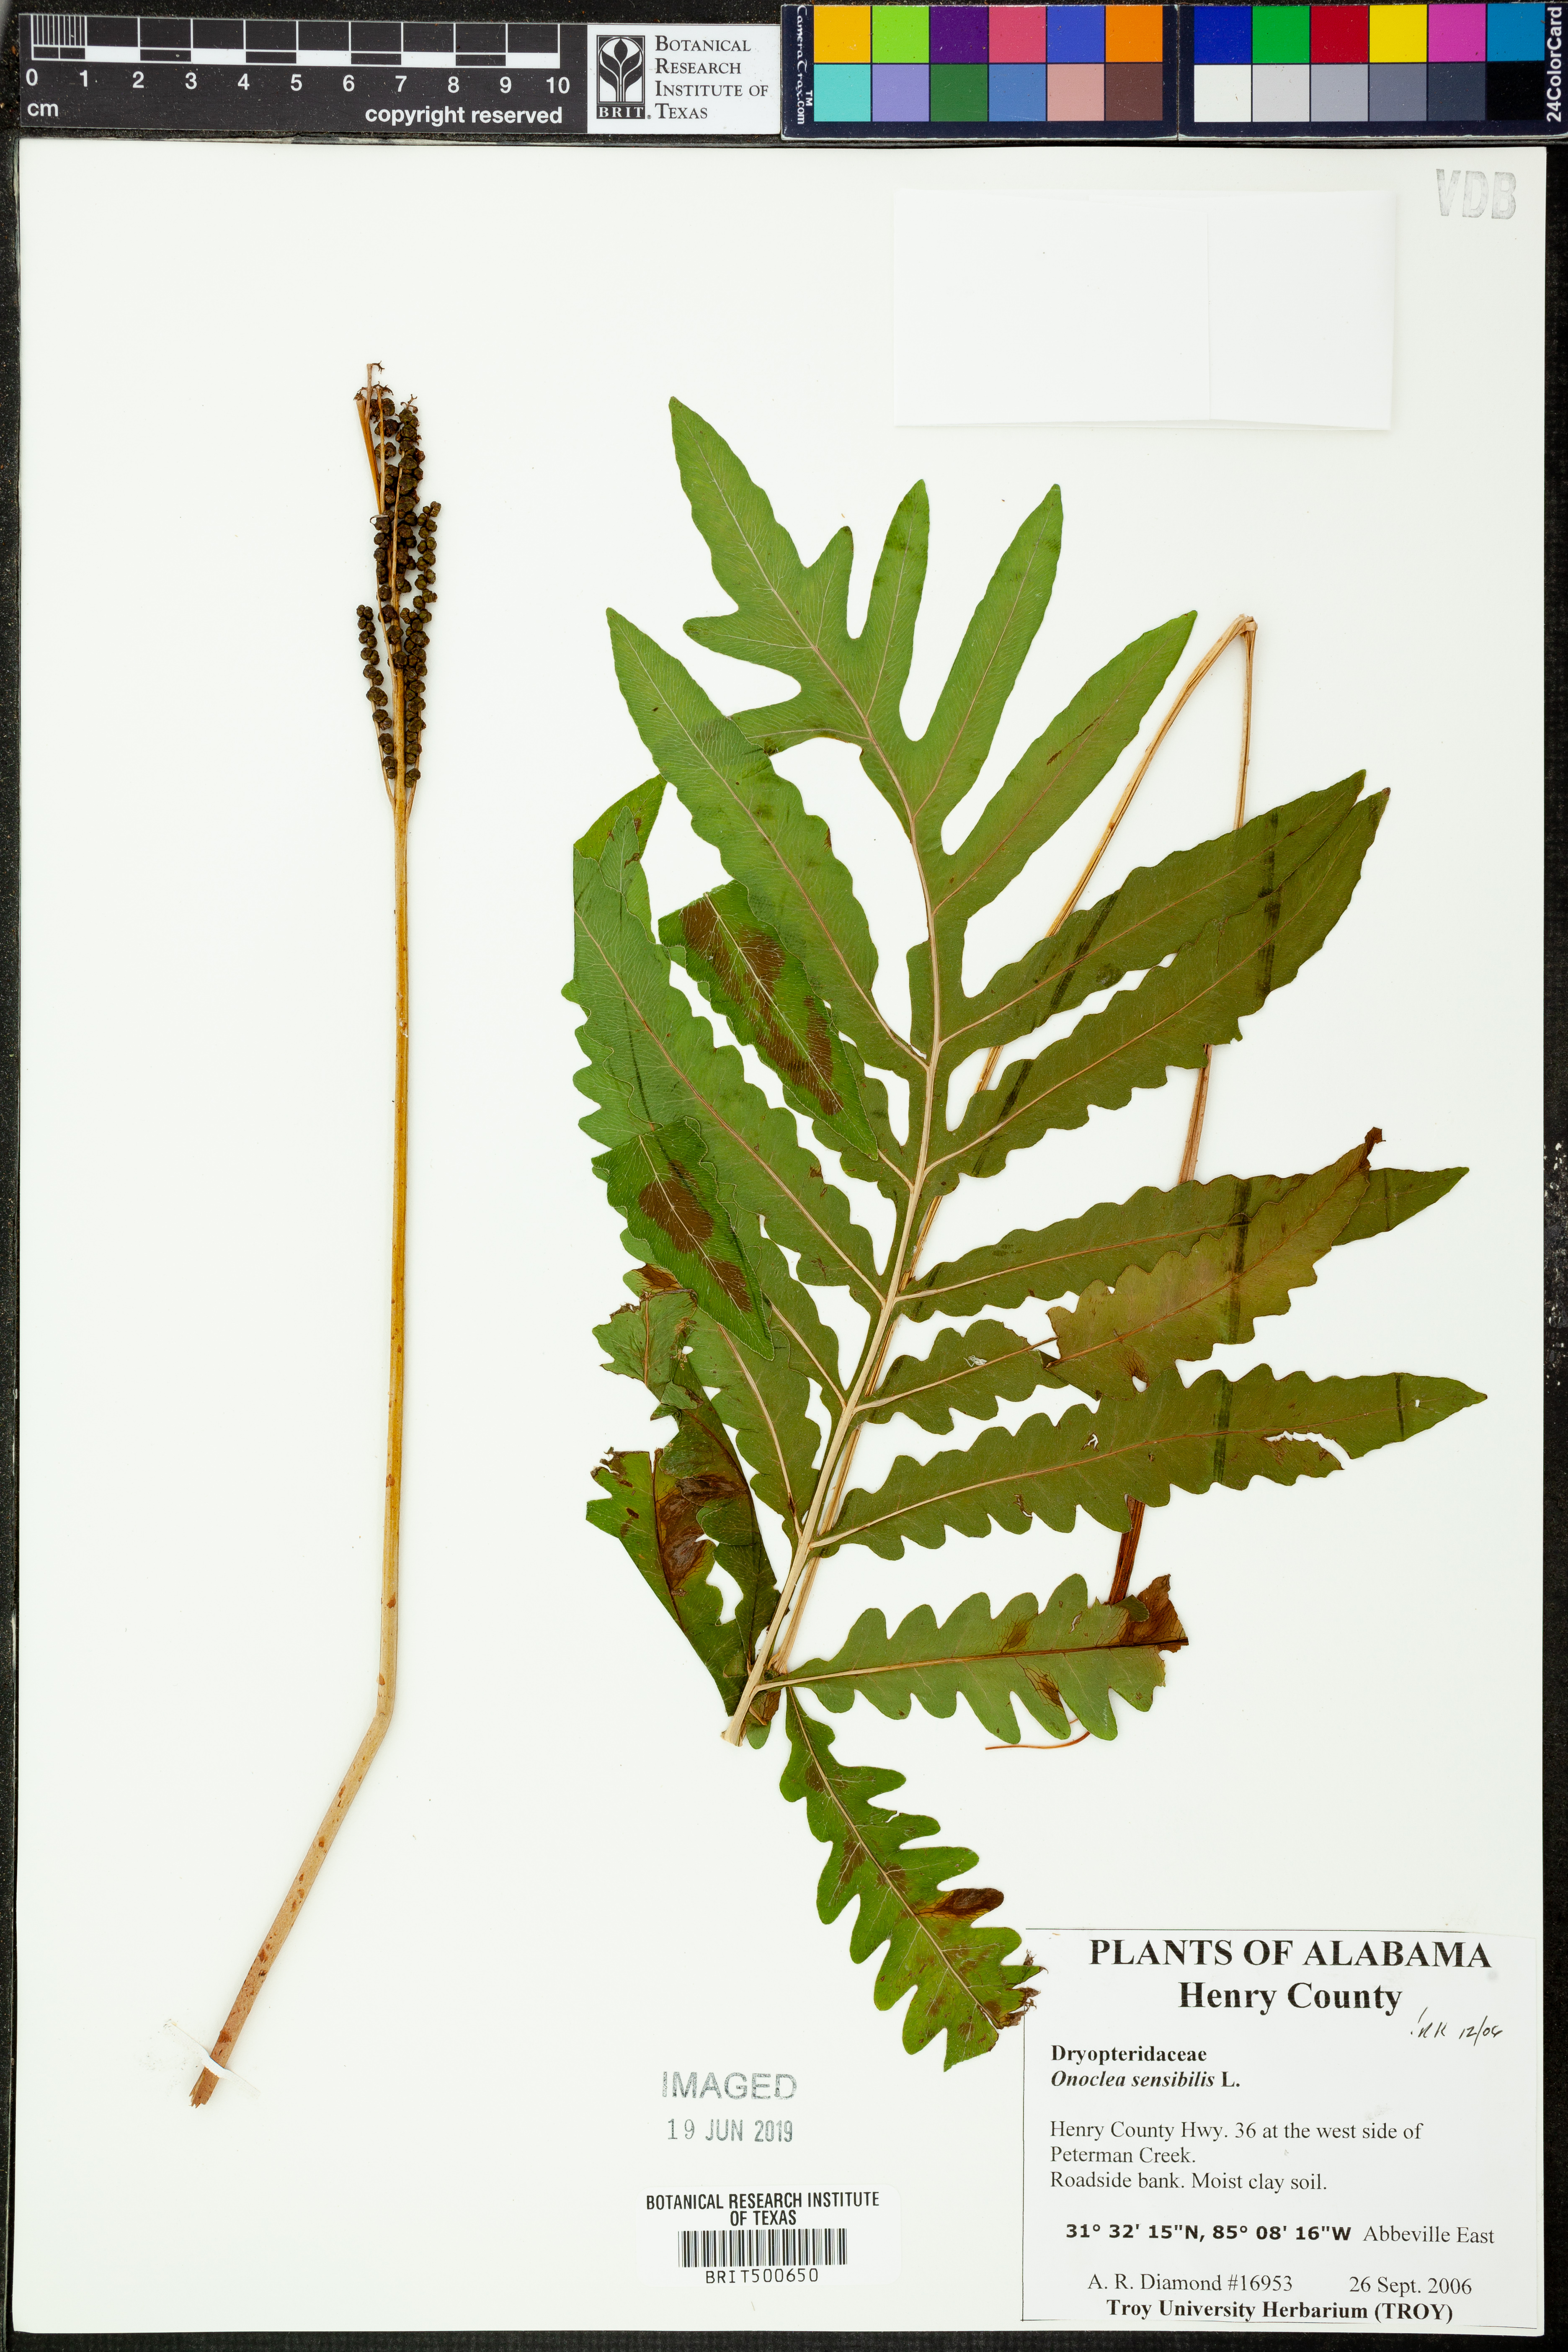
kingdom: Plantae
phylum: Tracheophyta
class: Polypodiopsida
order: Polypodiales
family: Onocleaceae
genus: Onoclea
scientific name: Onoclea sensibilis
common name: Sensitive fern
